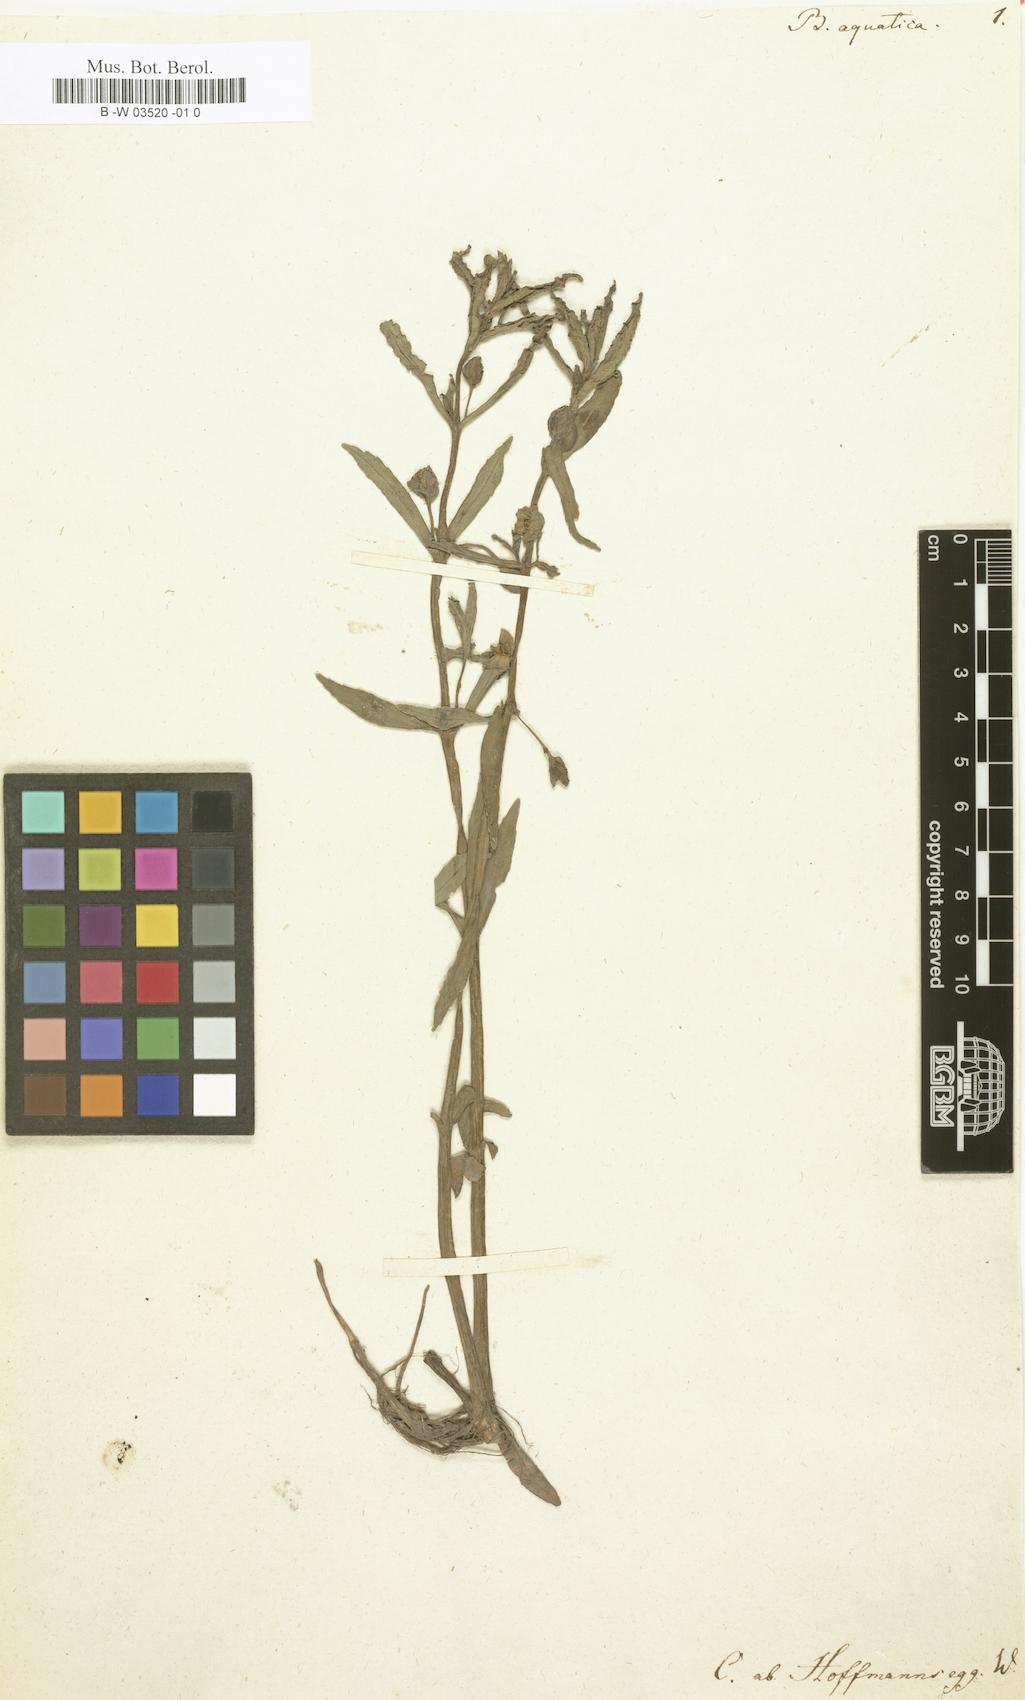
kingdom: Plantae
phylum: Tracheophyta
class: Magnoliopsida
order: Lamiales
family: Plantaginaceae
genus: Bacopa
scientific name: Bacopa aquatica
